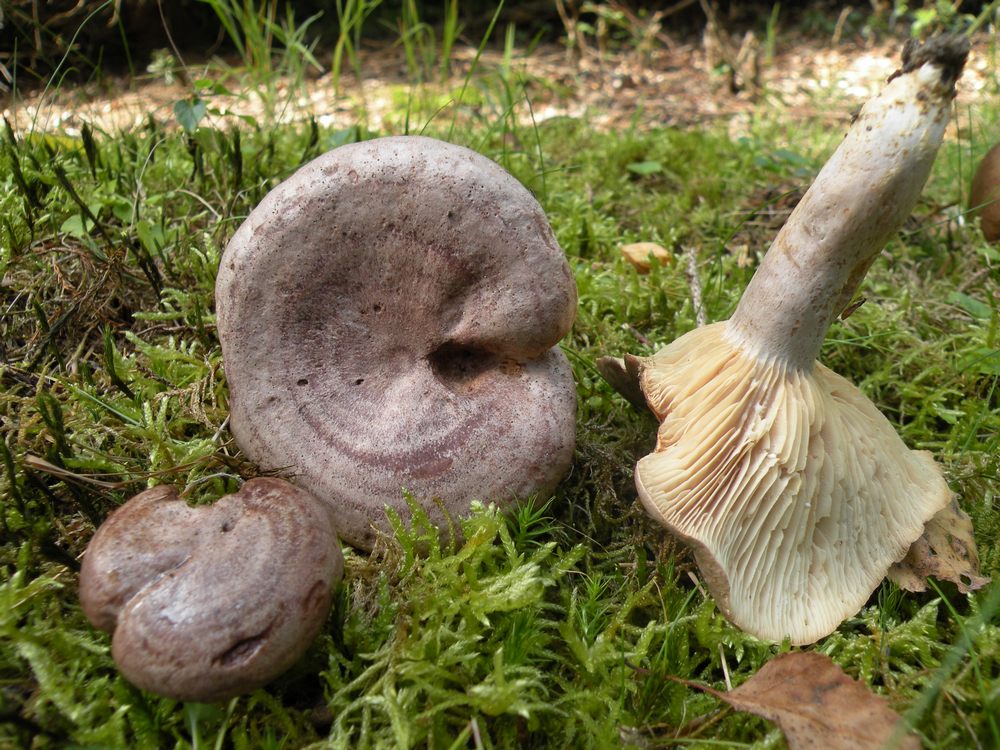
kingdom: Fungi
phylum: Basidiomycota
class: Agaricomycetes
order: Russulales
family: Russulaceae
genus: Lactarius
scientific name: Lactarius flexuosus
